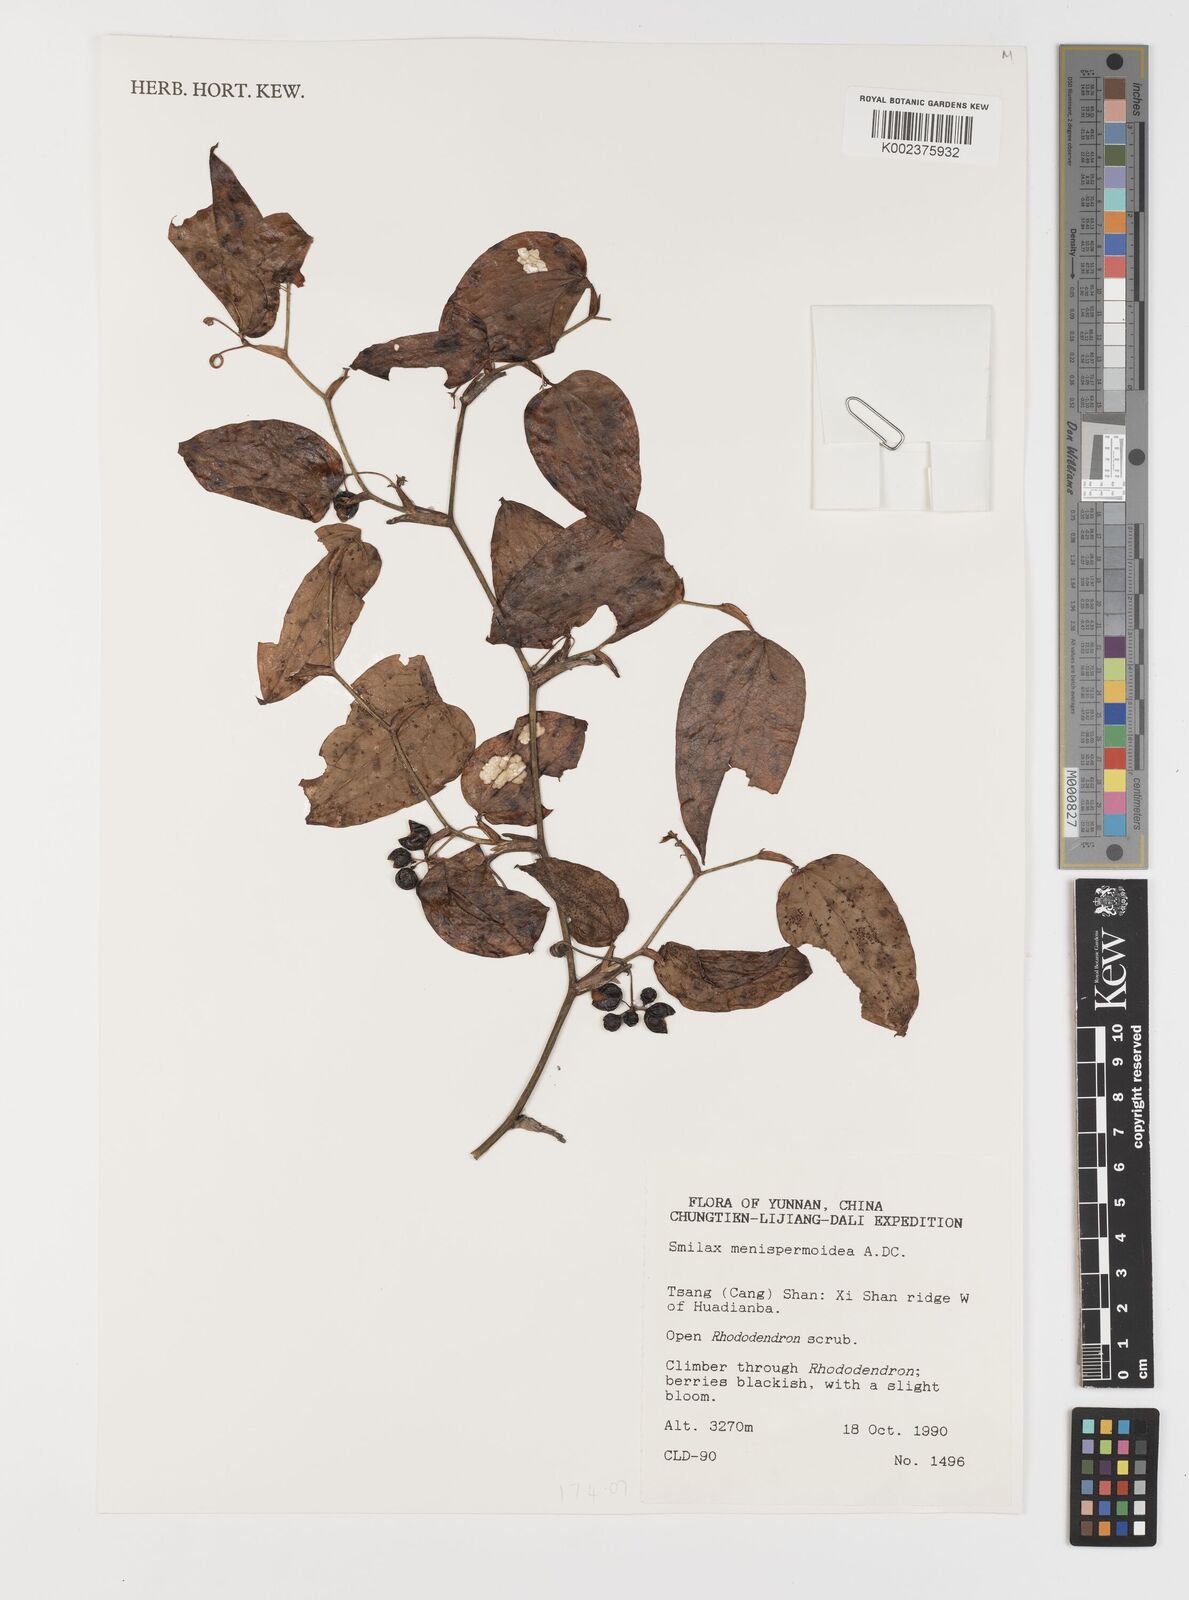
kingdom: Plantae
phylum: Tracheophyta
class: Liliopsida
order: Liliales
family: Smilacaceae
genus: Smilax
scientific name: Smilax menispermoidea
